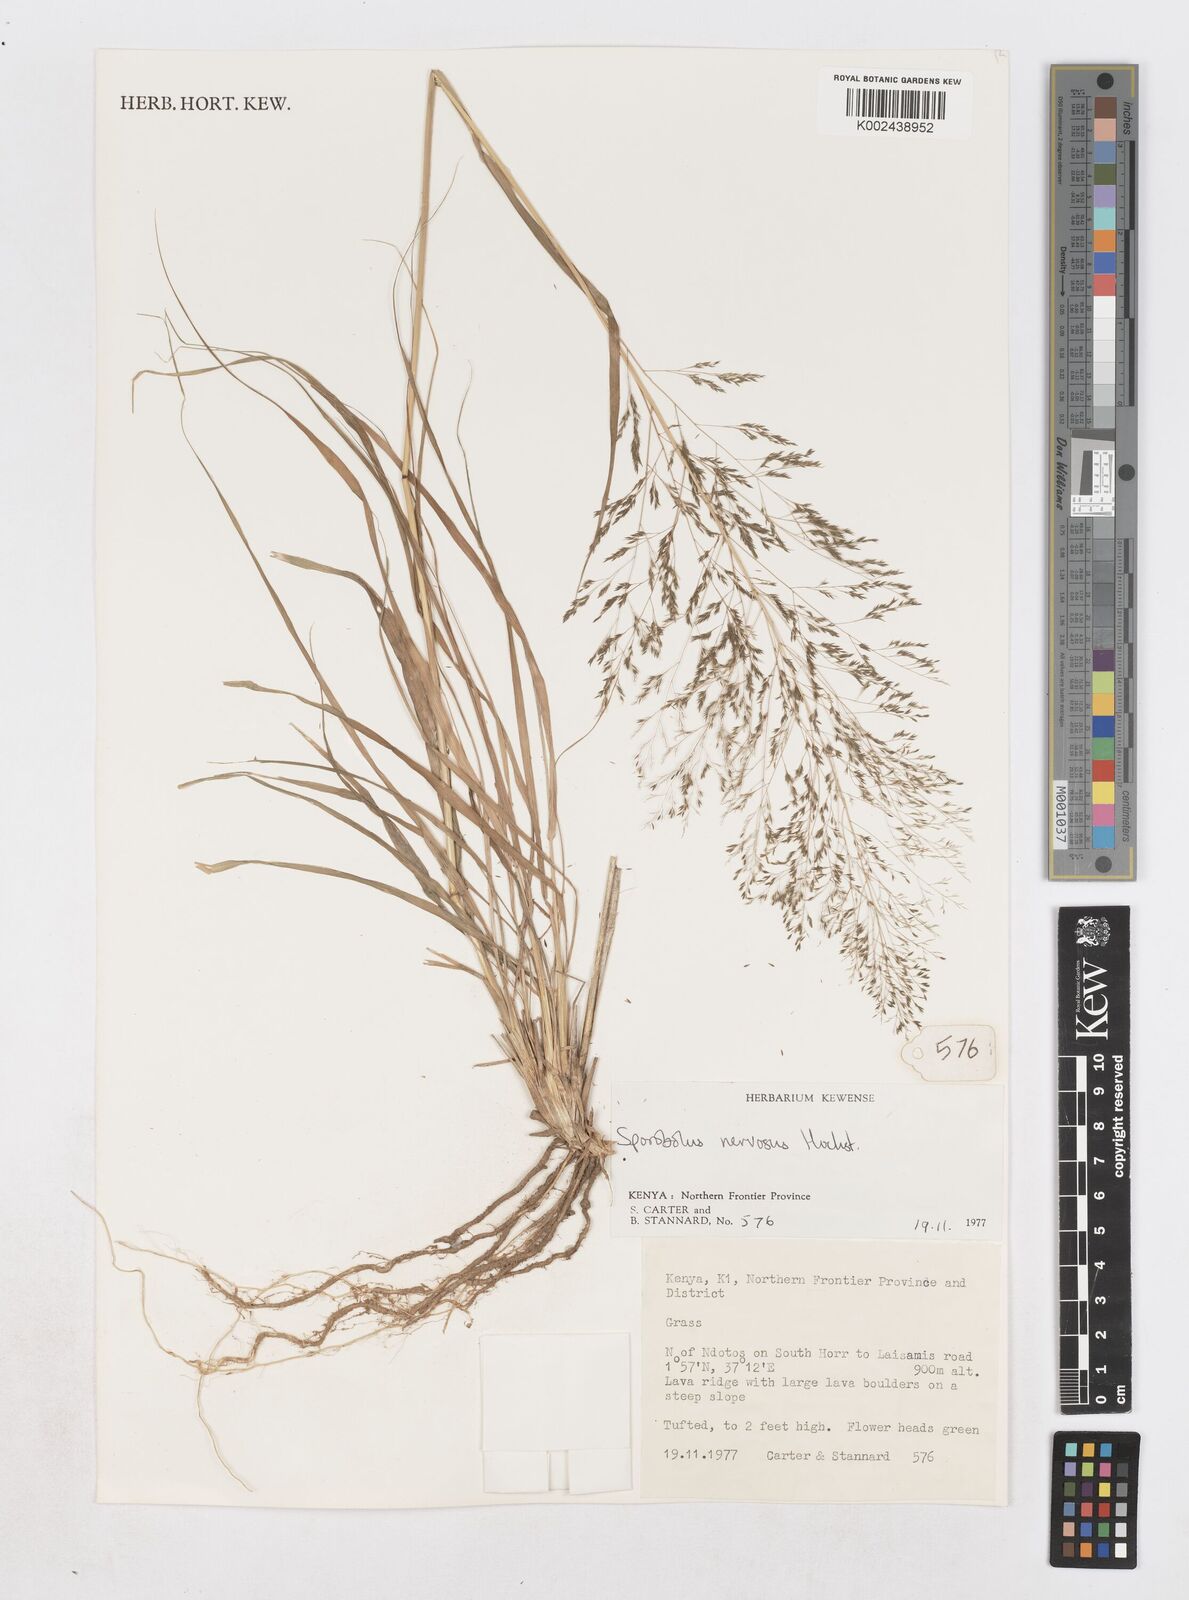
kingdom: Plantae
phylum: Tracheophyta
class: Liliopsida
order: Poales
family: Poaceae
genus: Sporobolus
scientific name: Sporobolus nervosus
